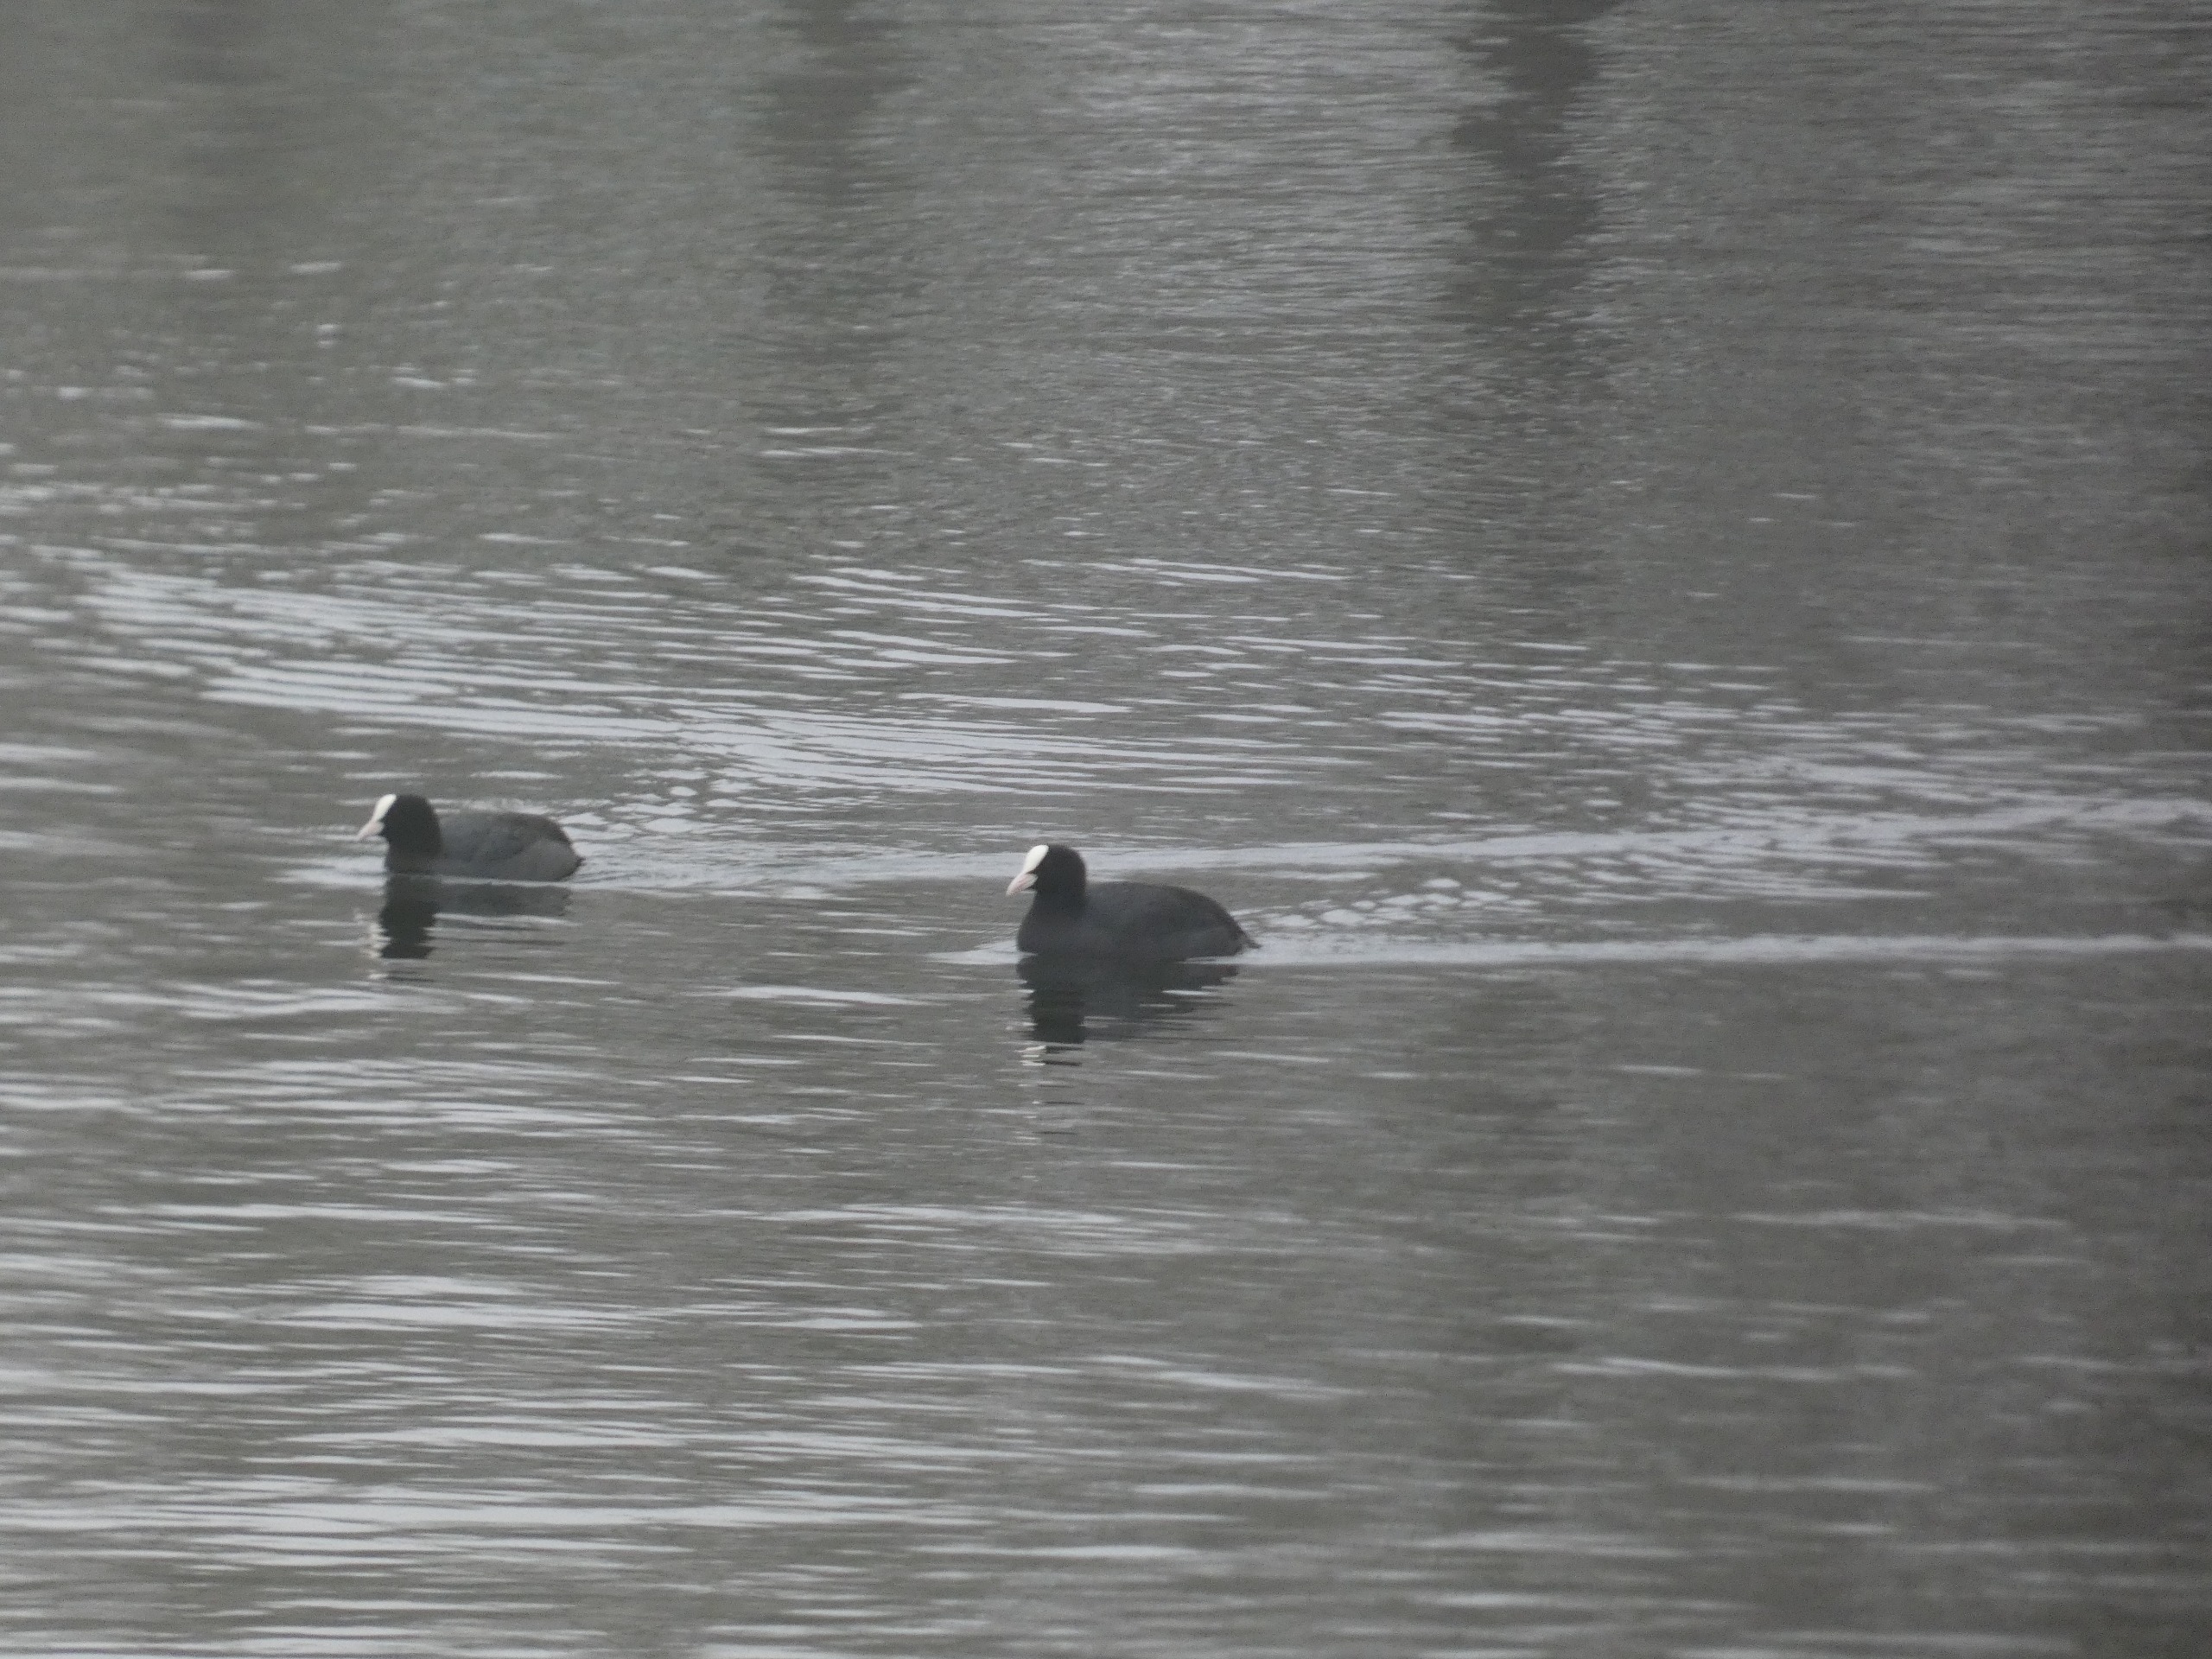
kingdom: Animalia
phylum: Chordata
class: Aves
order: Gruiformes
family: Rallidae
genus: Fulica
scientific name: Fulica atra
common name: Blishøne
